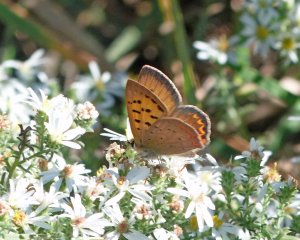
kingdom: Animalia
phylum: Arthropoda
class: Insecta
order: Lepidoptera
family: Sesiidae
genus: Sesia
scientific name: Sesia Lycaena helloides
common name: Purplish Copper
